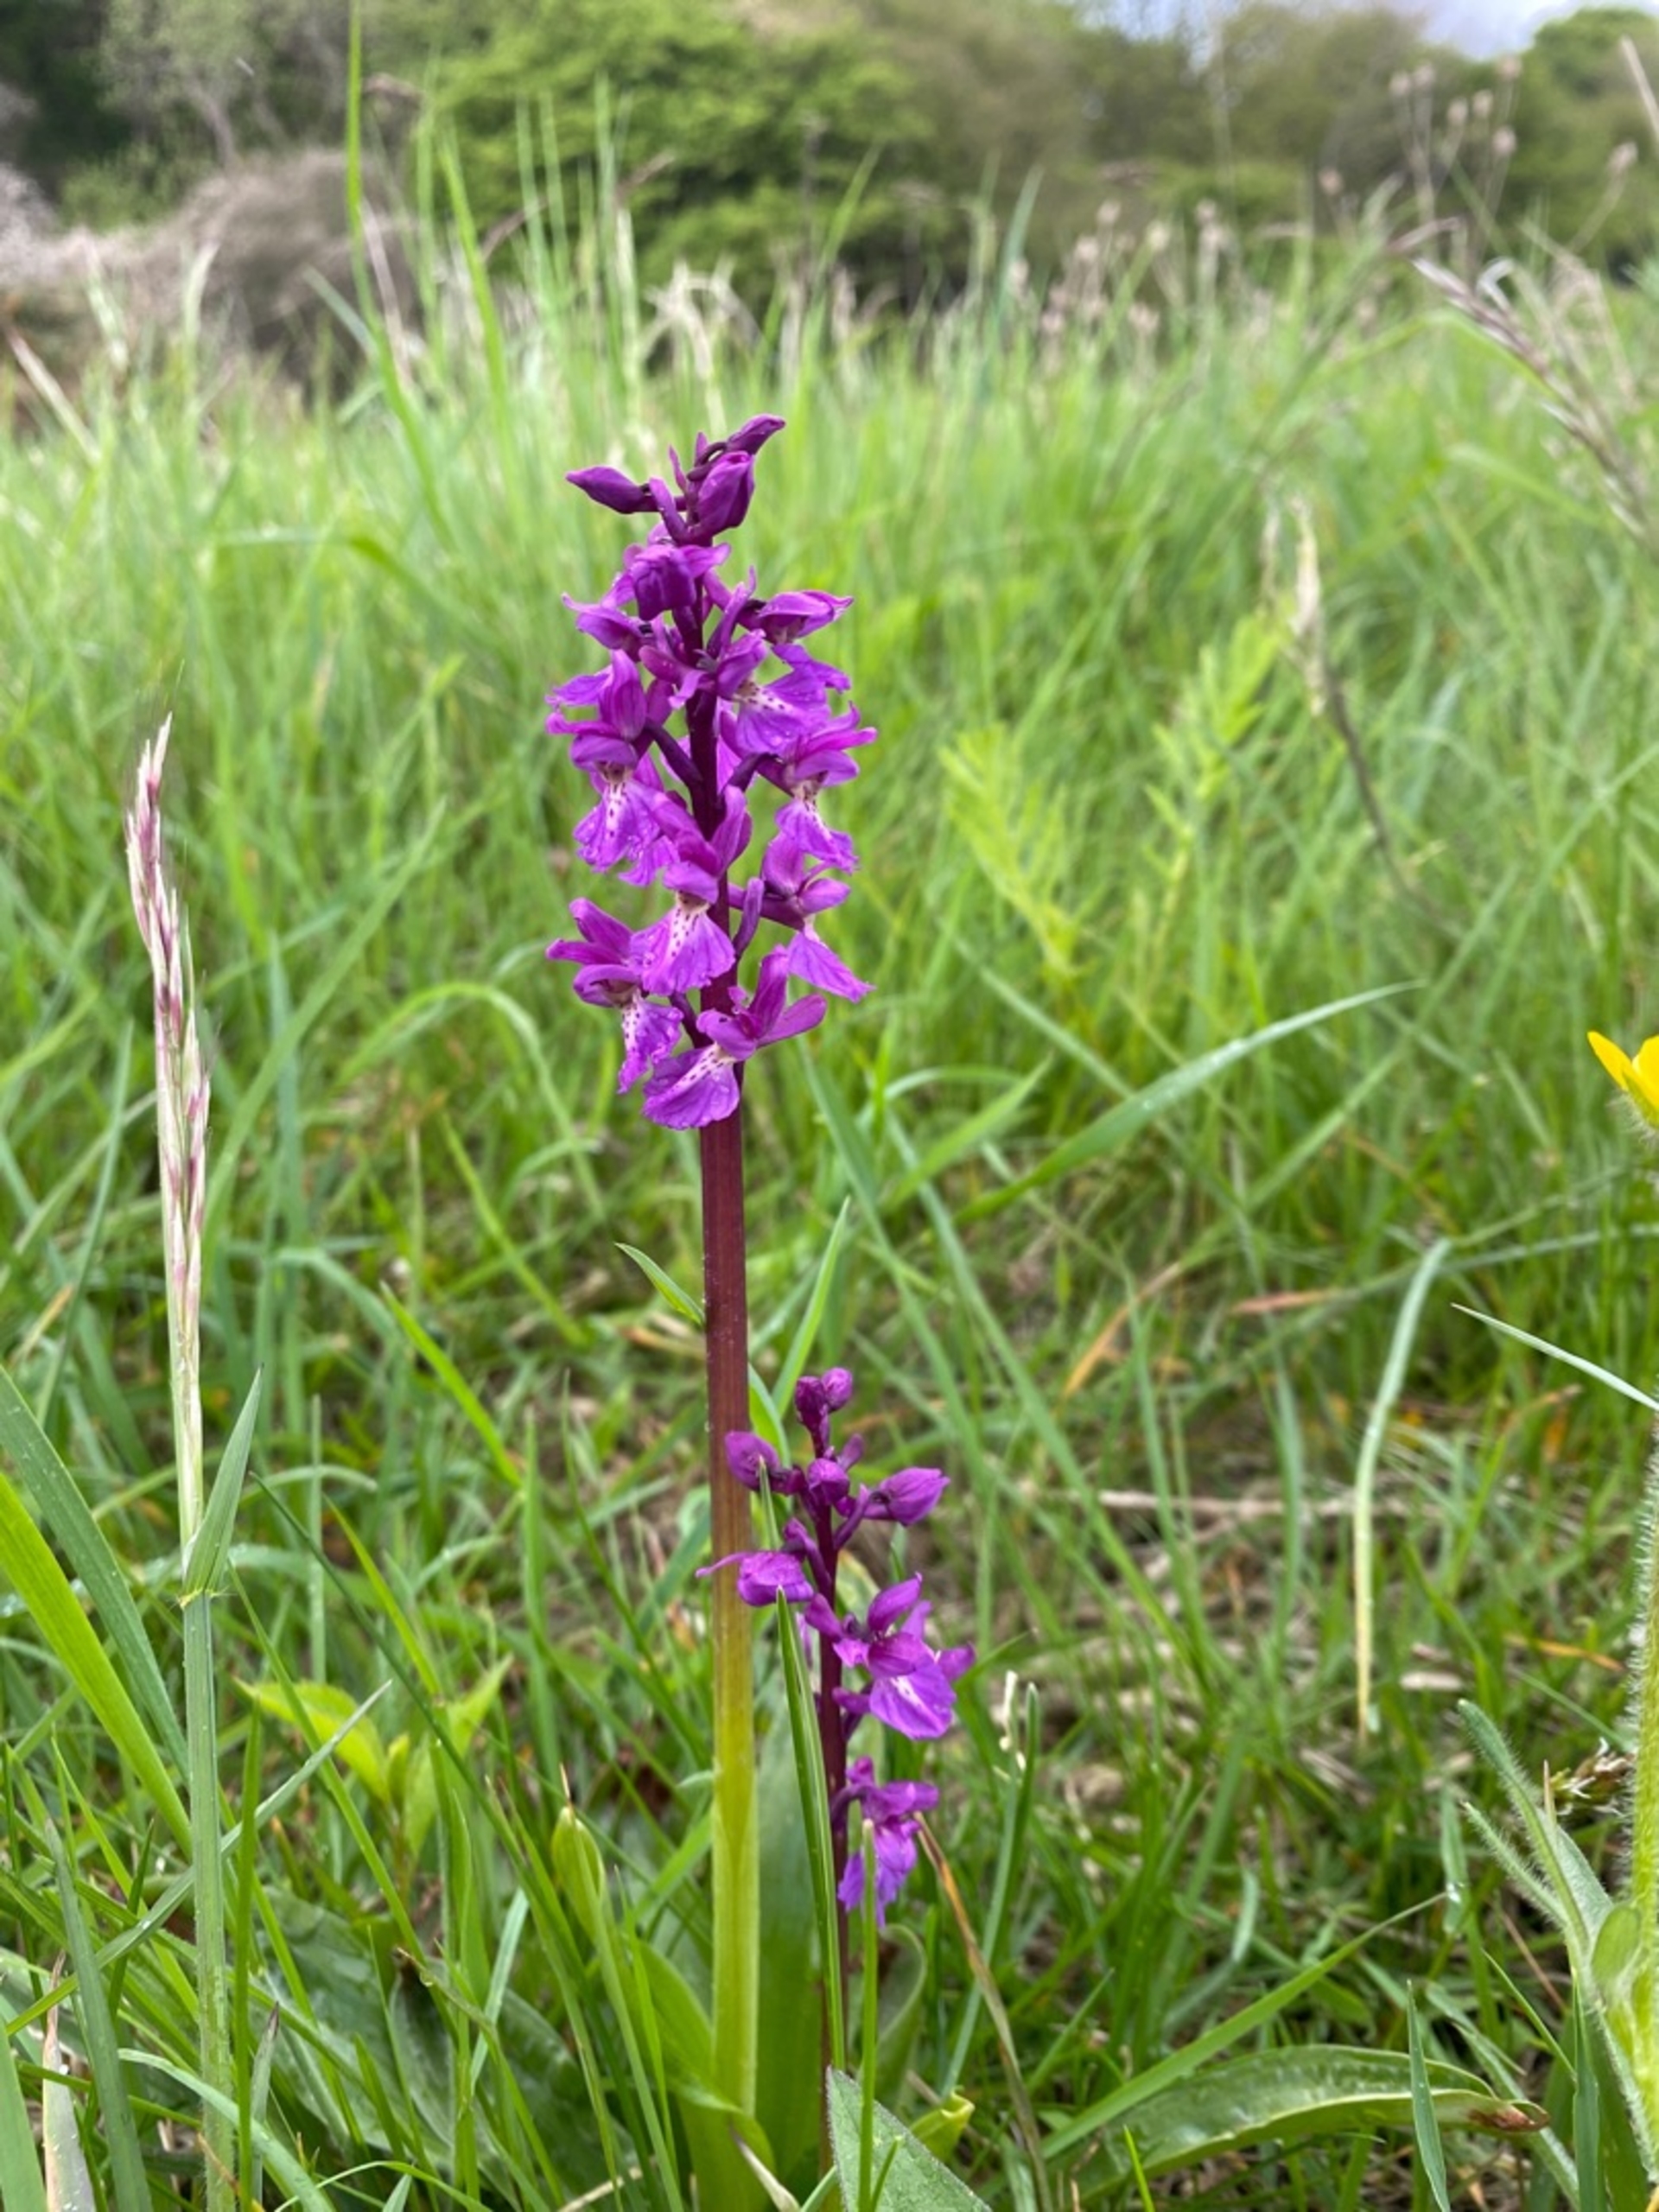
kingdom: Plantae
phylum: Tracheophyta
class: Liliopsida
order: Asparagales
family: Orchidaceae
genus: Orchis
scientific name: Orchis mascula
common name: Tyndakset gøgeurt
